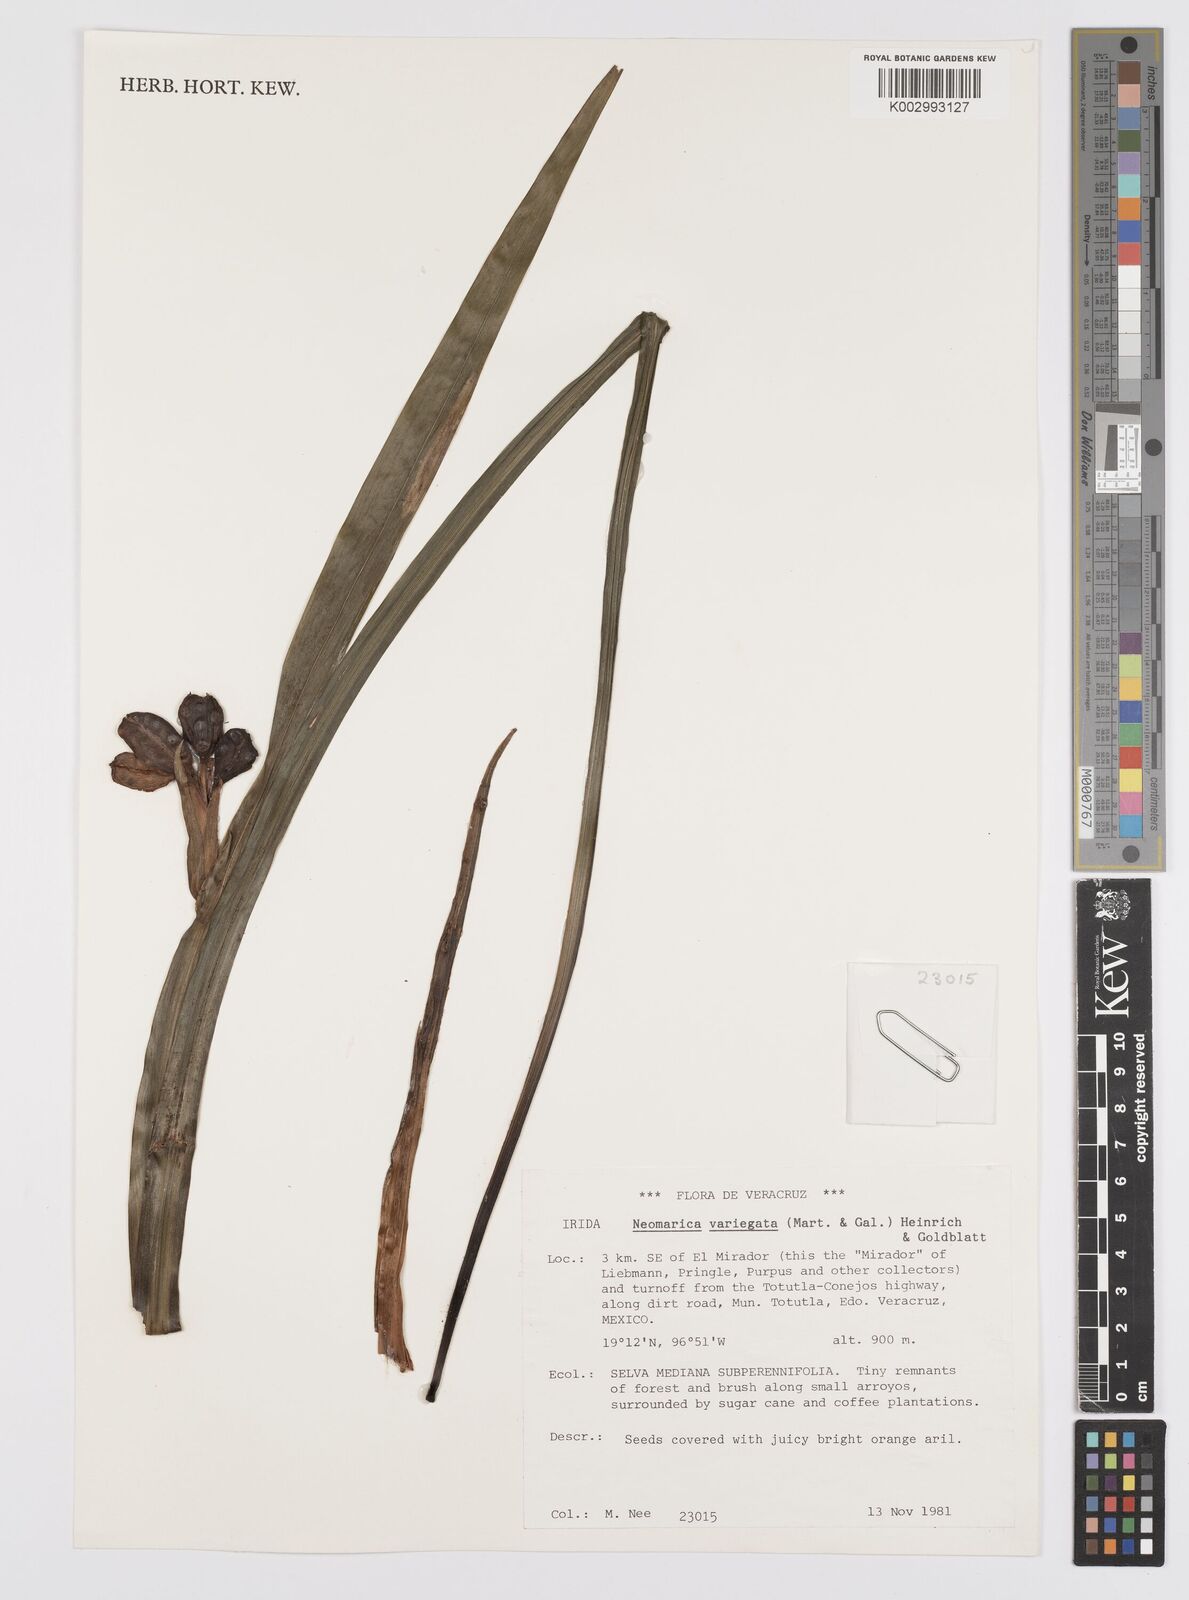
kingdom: Plantae
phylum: Tracheophyta
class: Liliopsida
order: Asparagales
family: Iridaceae
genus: Trimezia
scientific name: Trimezia variegata
